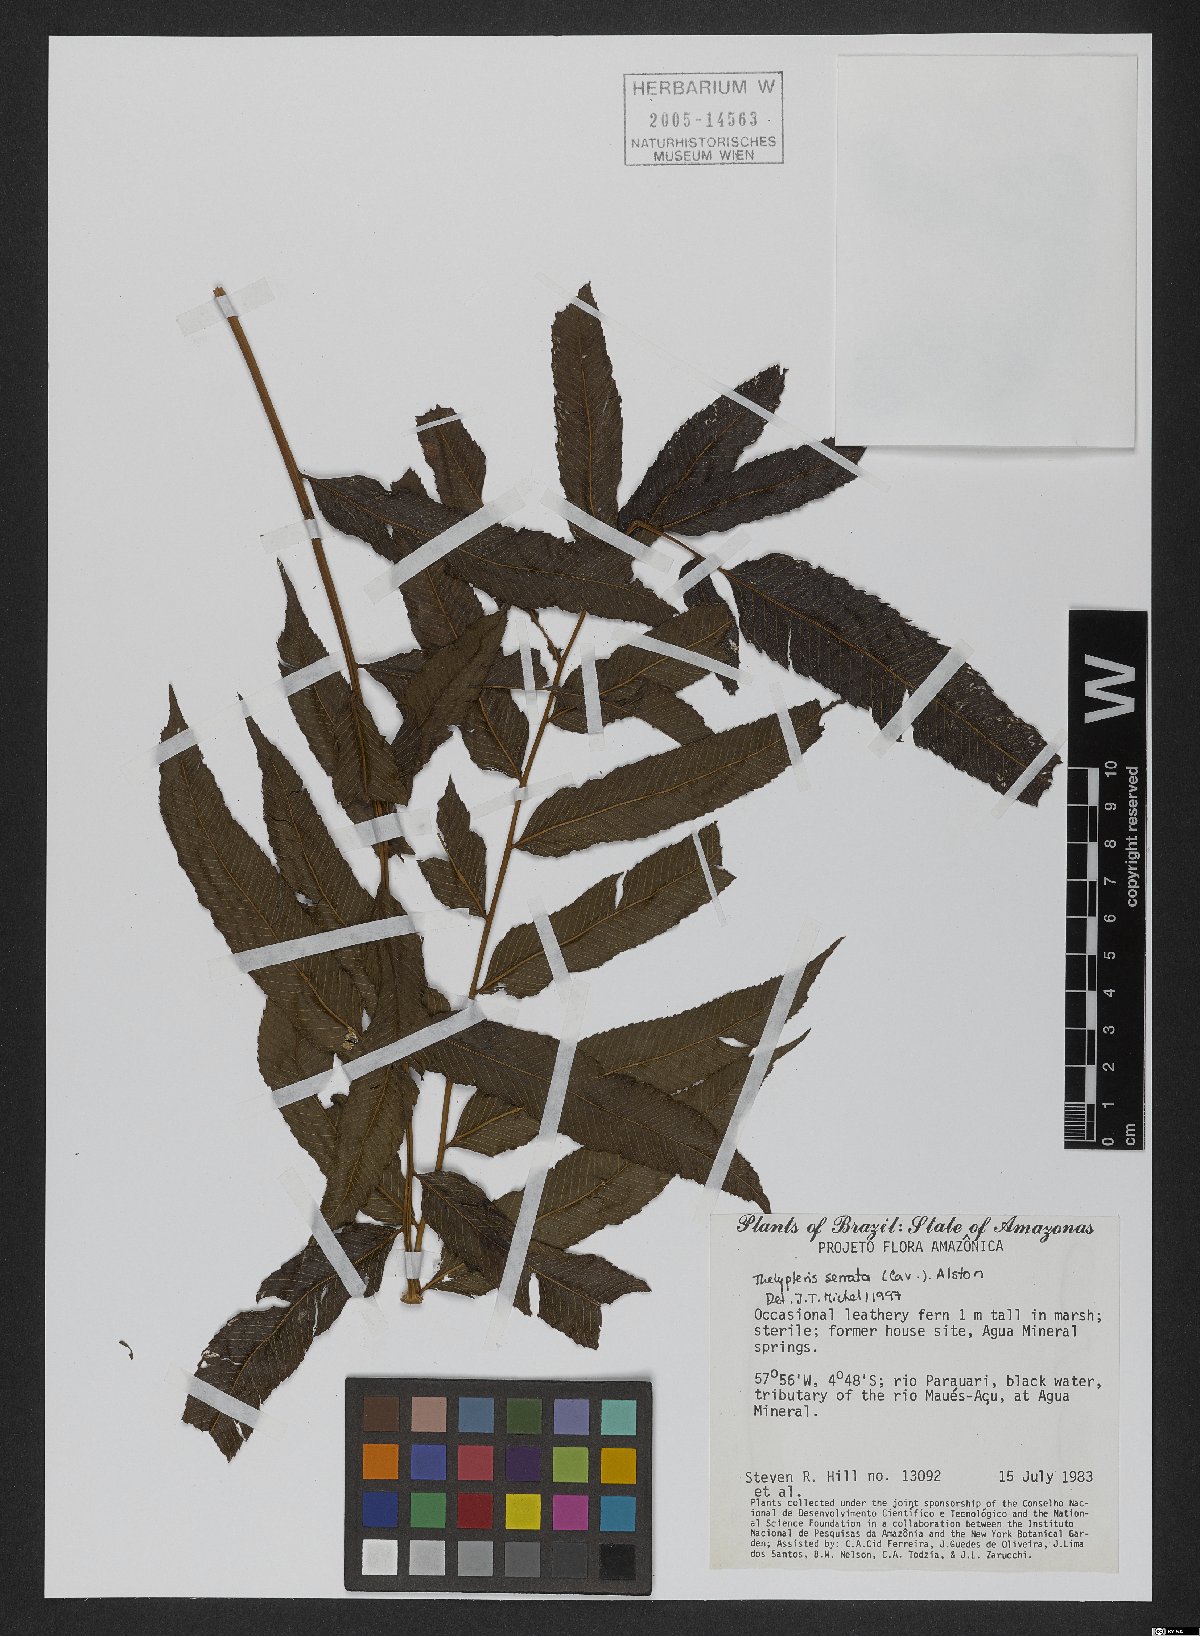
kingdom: Plantae
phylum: Tracheophyta
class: Polypodiopsida
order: Polypodiales
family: Thelypteridaceae
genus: Meniscium
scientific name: Meniscium serratum
